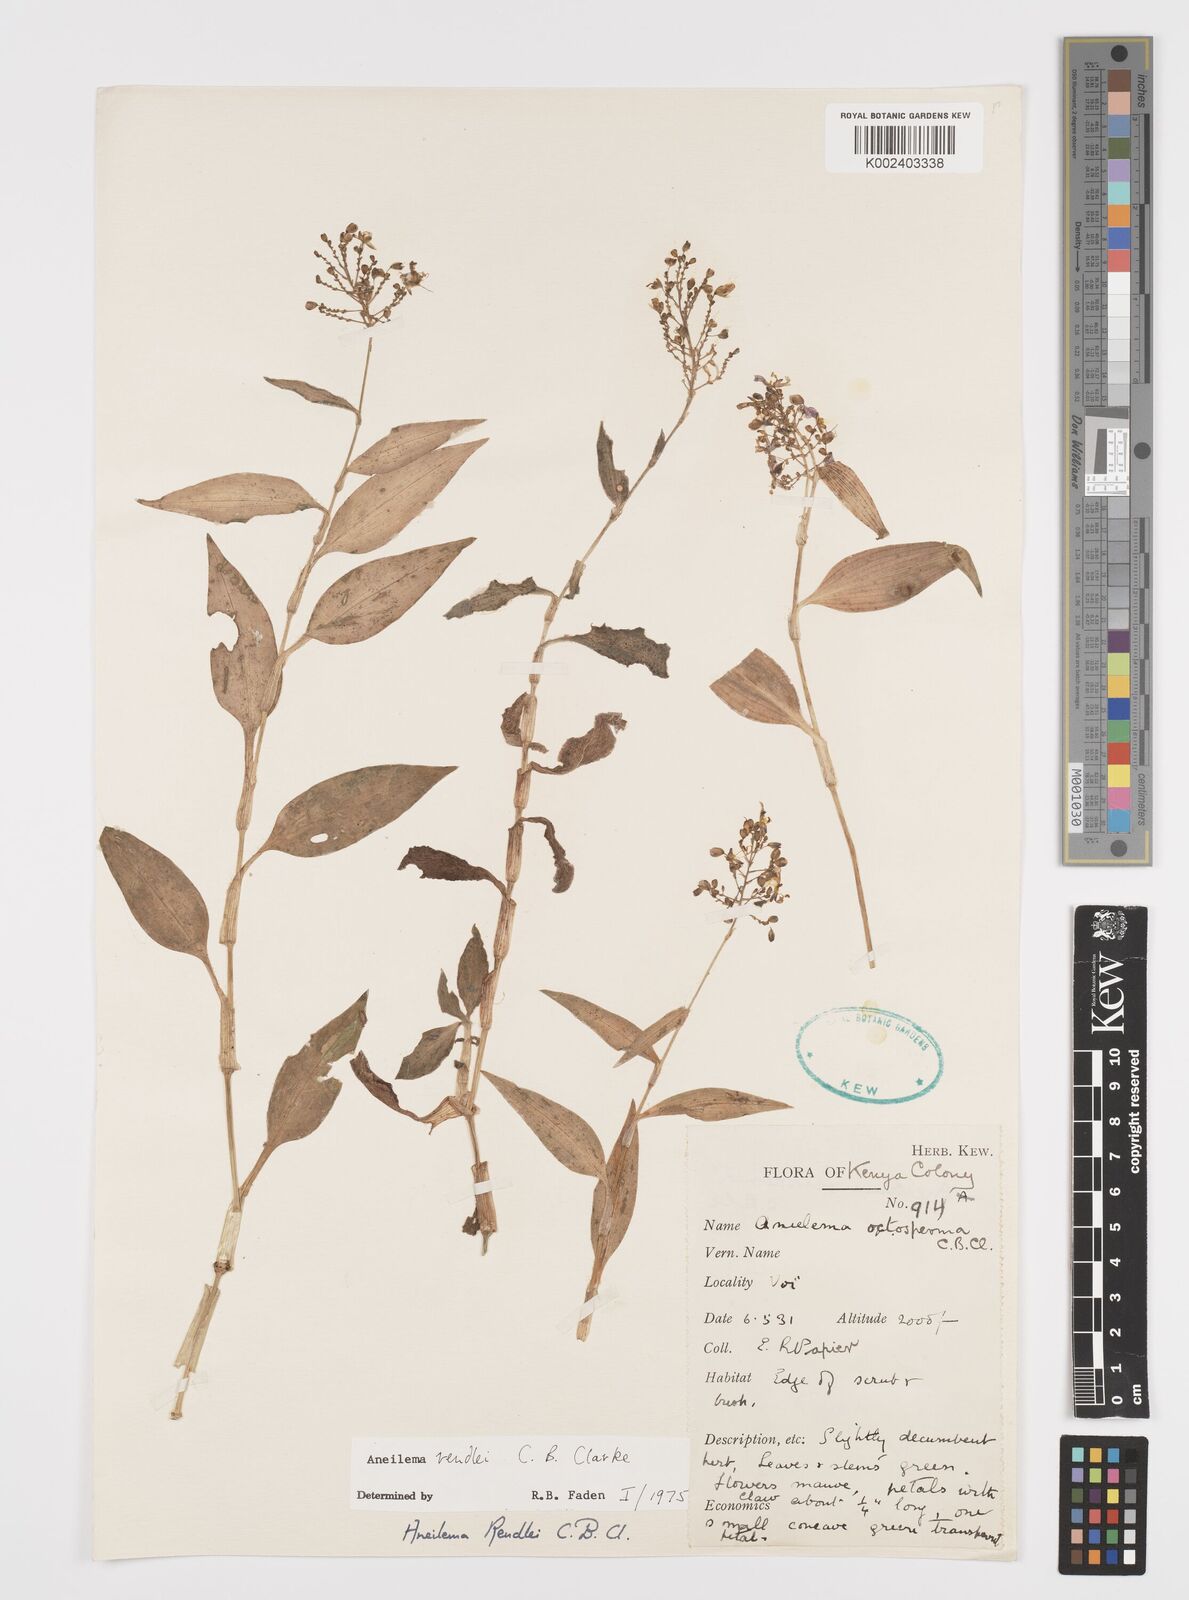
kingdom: Plantae
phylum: Tracheophyta
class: Liliopsida
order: Commelinales
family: Commelinaceae
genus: Aneilema
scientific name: Aneilema rendlei
